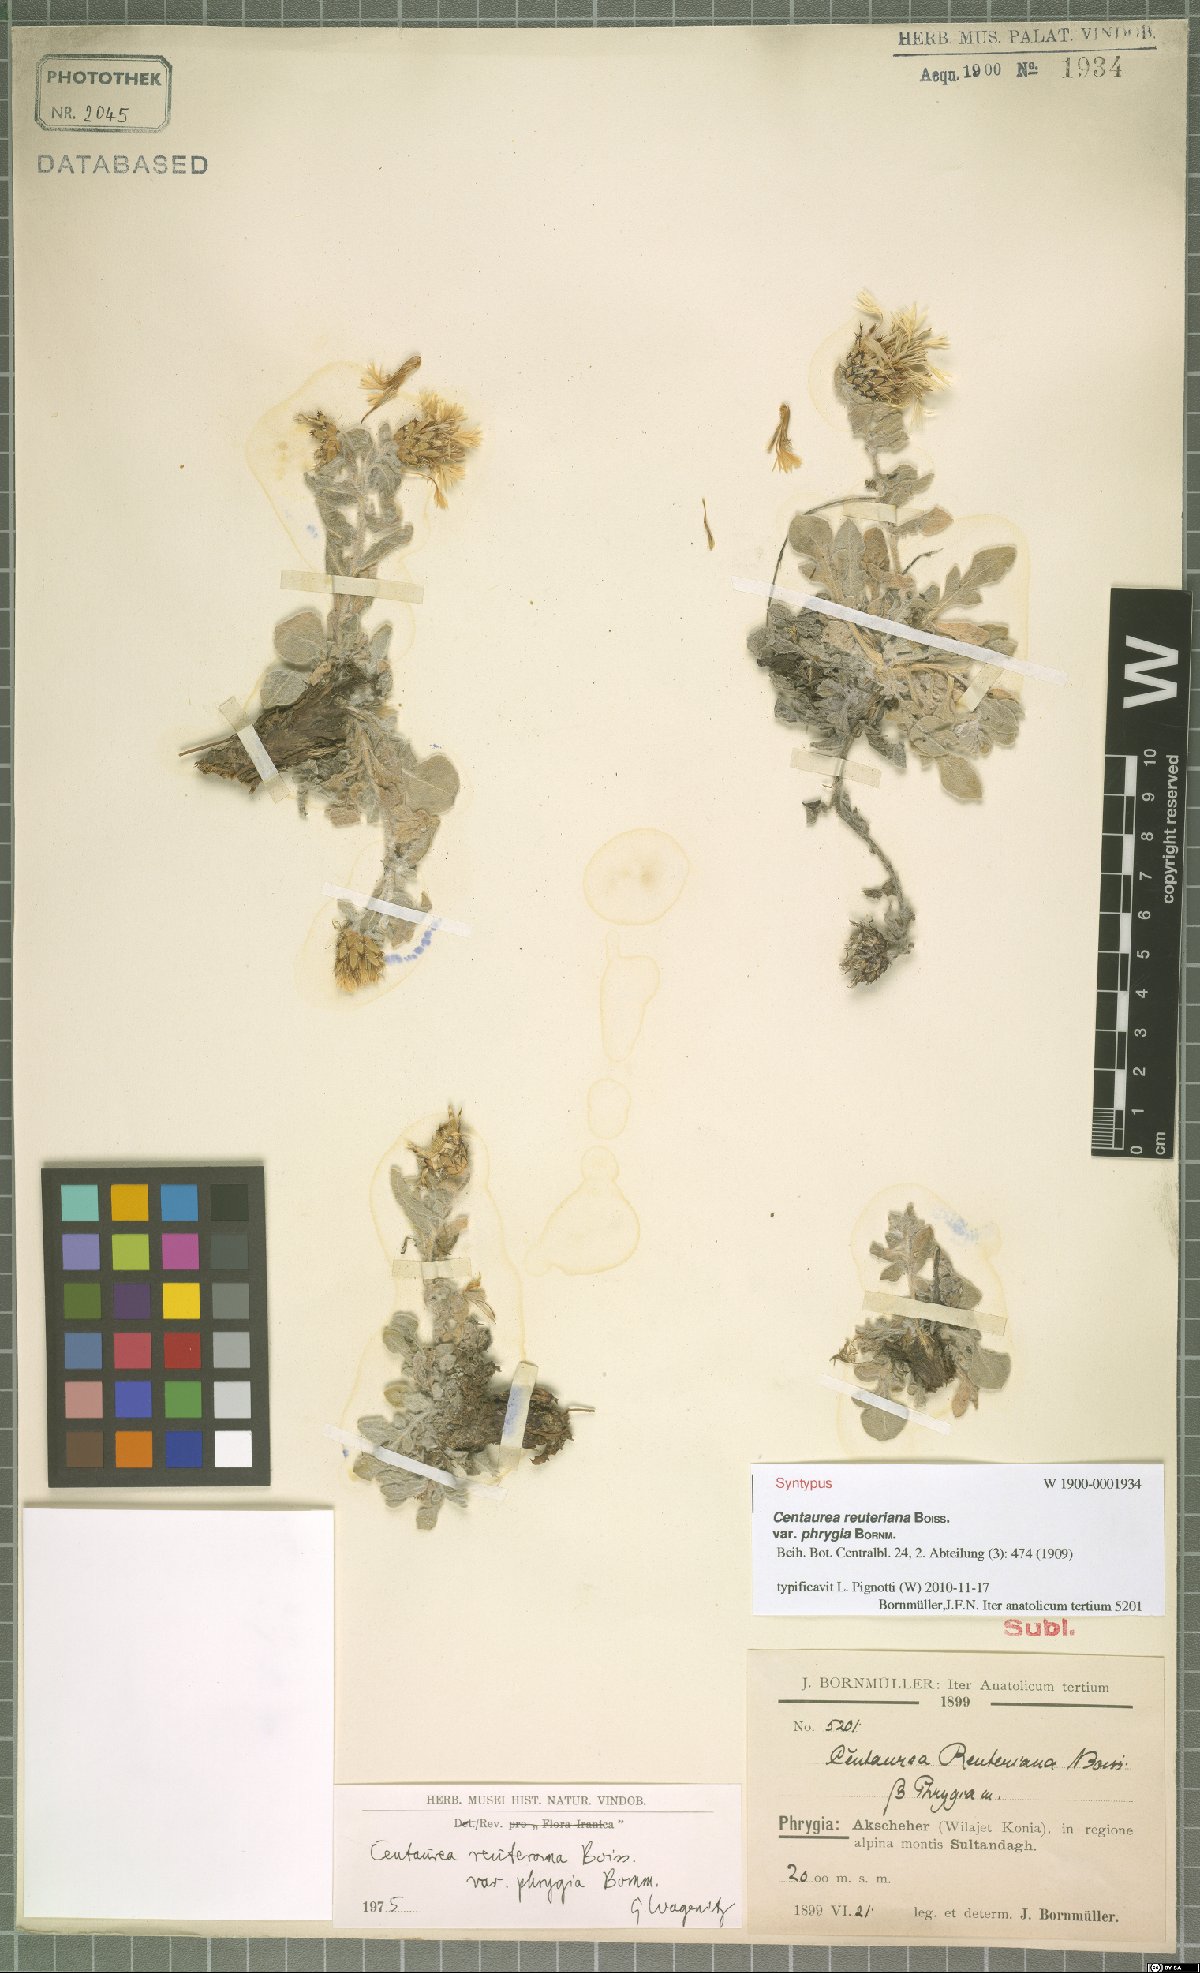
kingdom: Plantae
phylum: Tracheophyta
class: Magnoliopsida
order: Asterales
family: Asteraceae
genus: Centaurea
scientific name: Centaurea reuteriana
